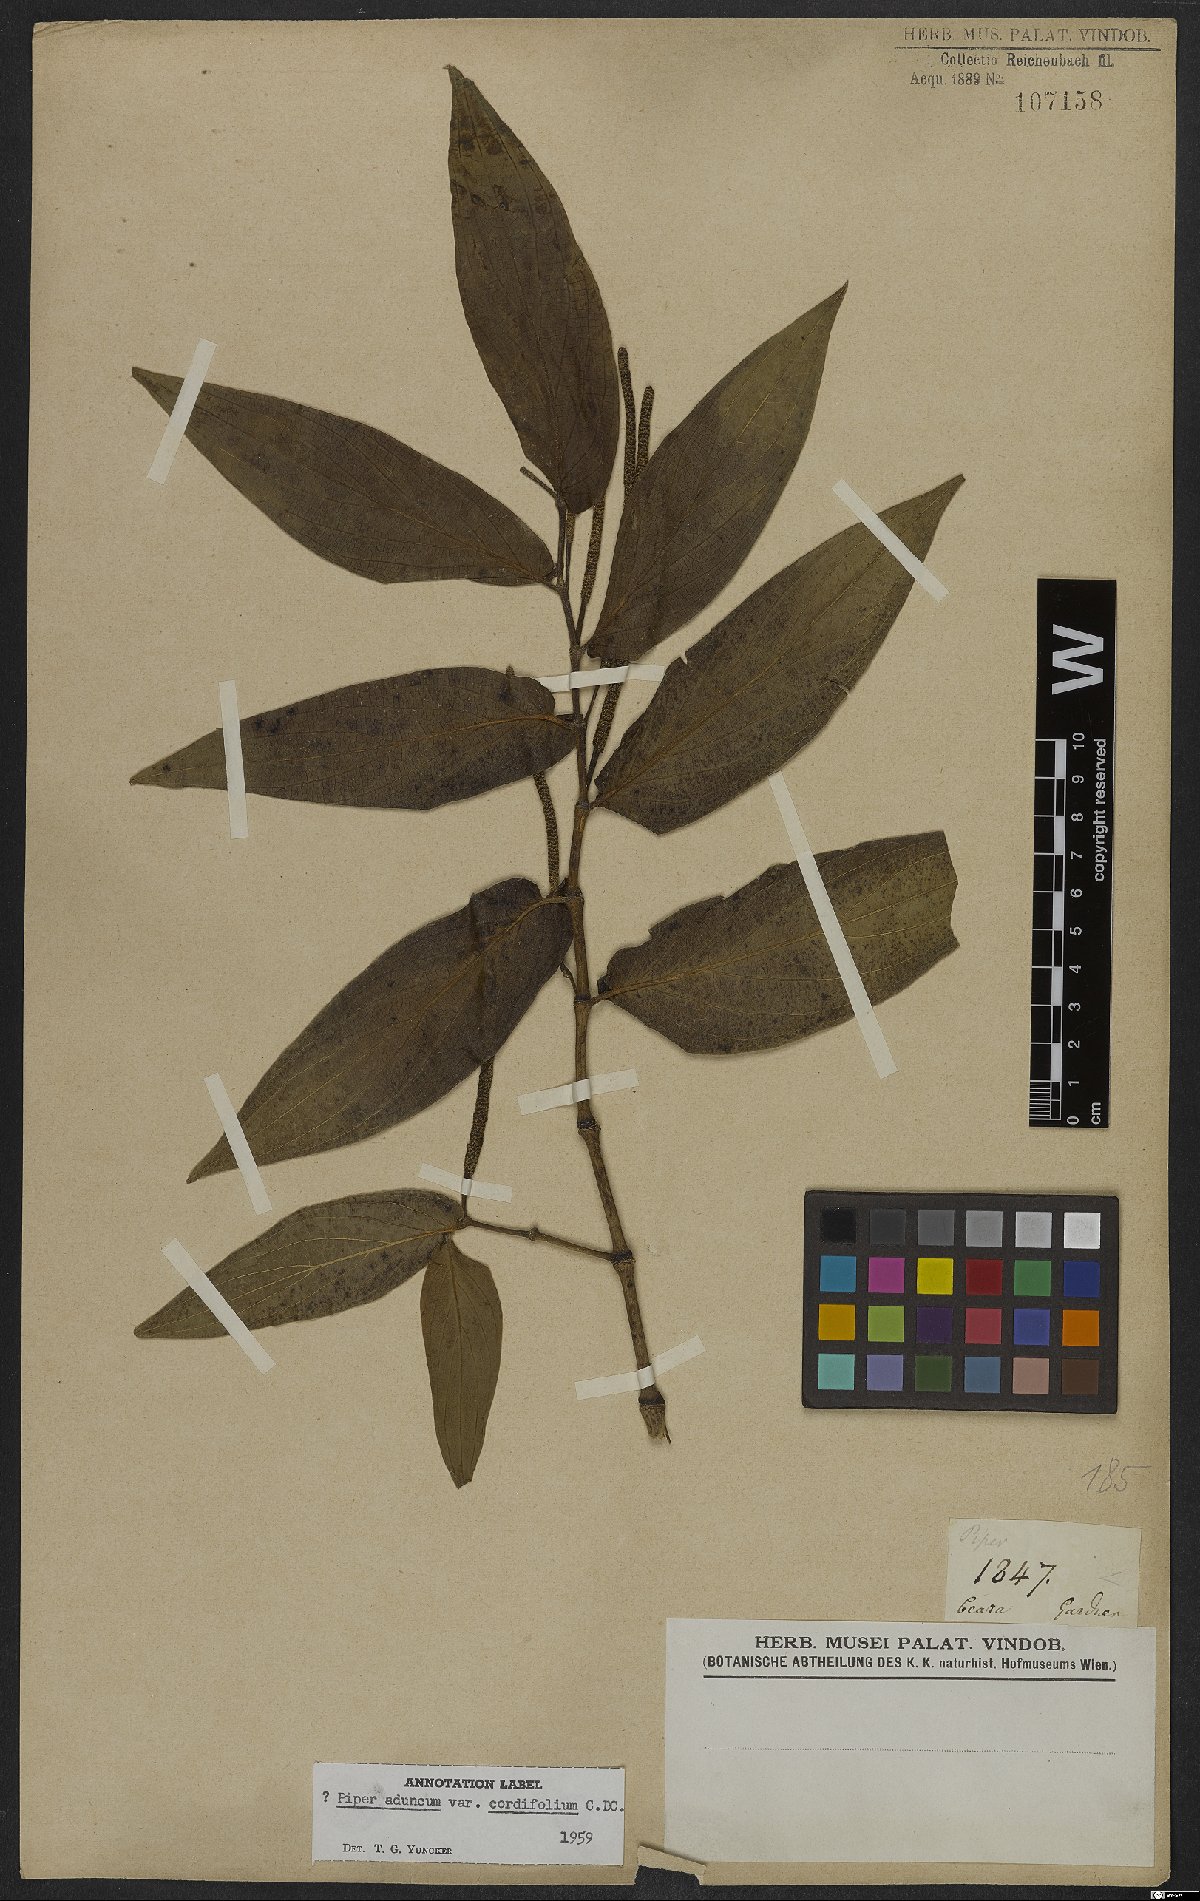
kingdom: Plantae
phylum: Tracheophyta
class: Magnoliopsida
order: Piperales
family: Piperaceae
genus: Piper
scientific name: Piper aduncum
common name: Spiked pepper
